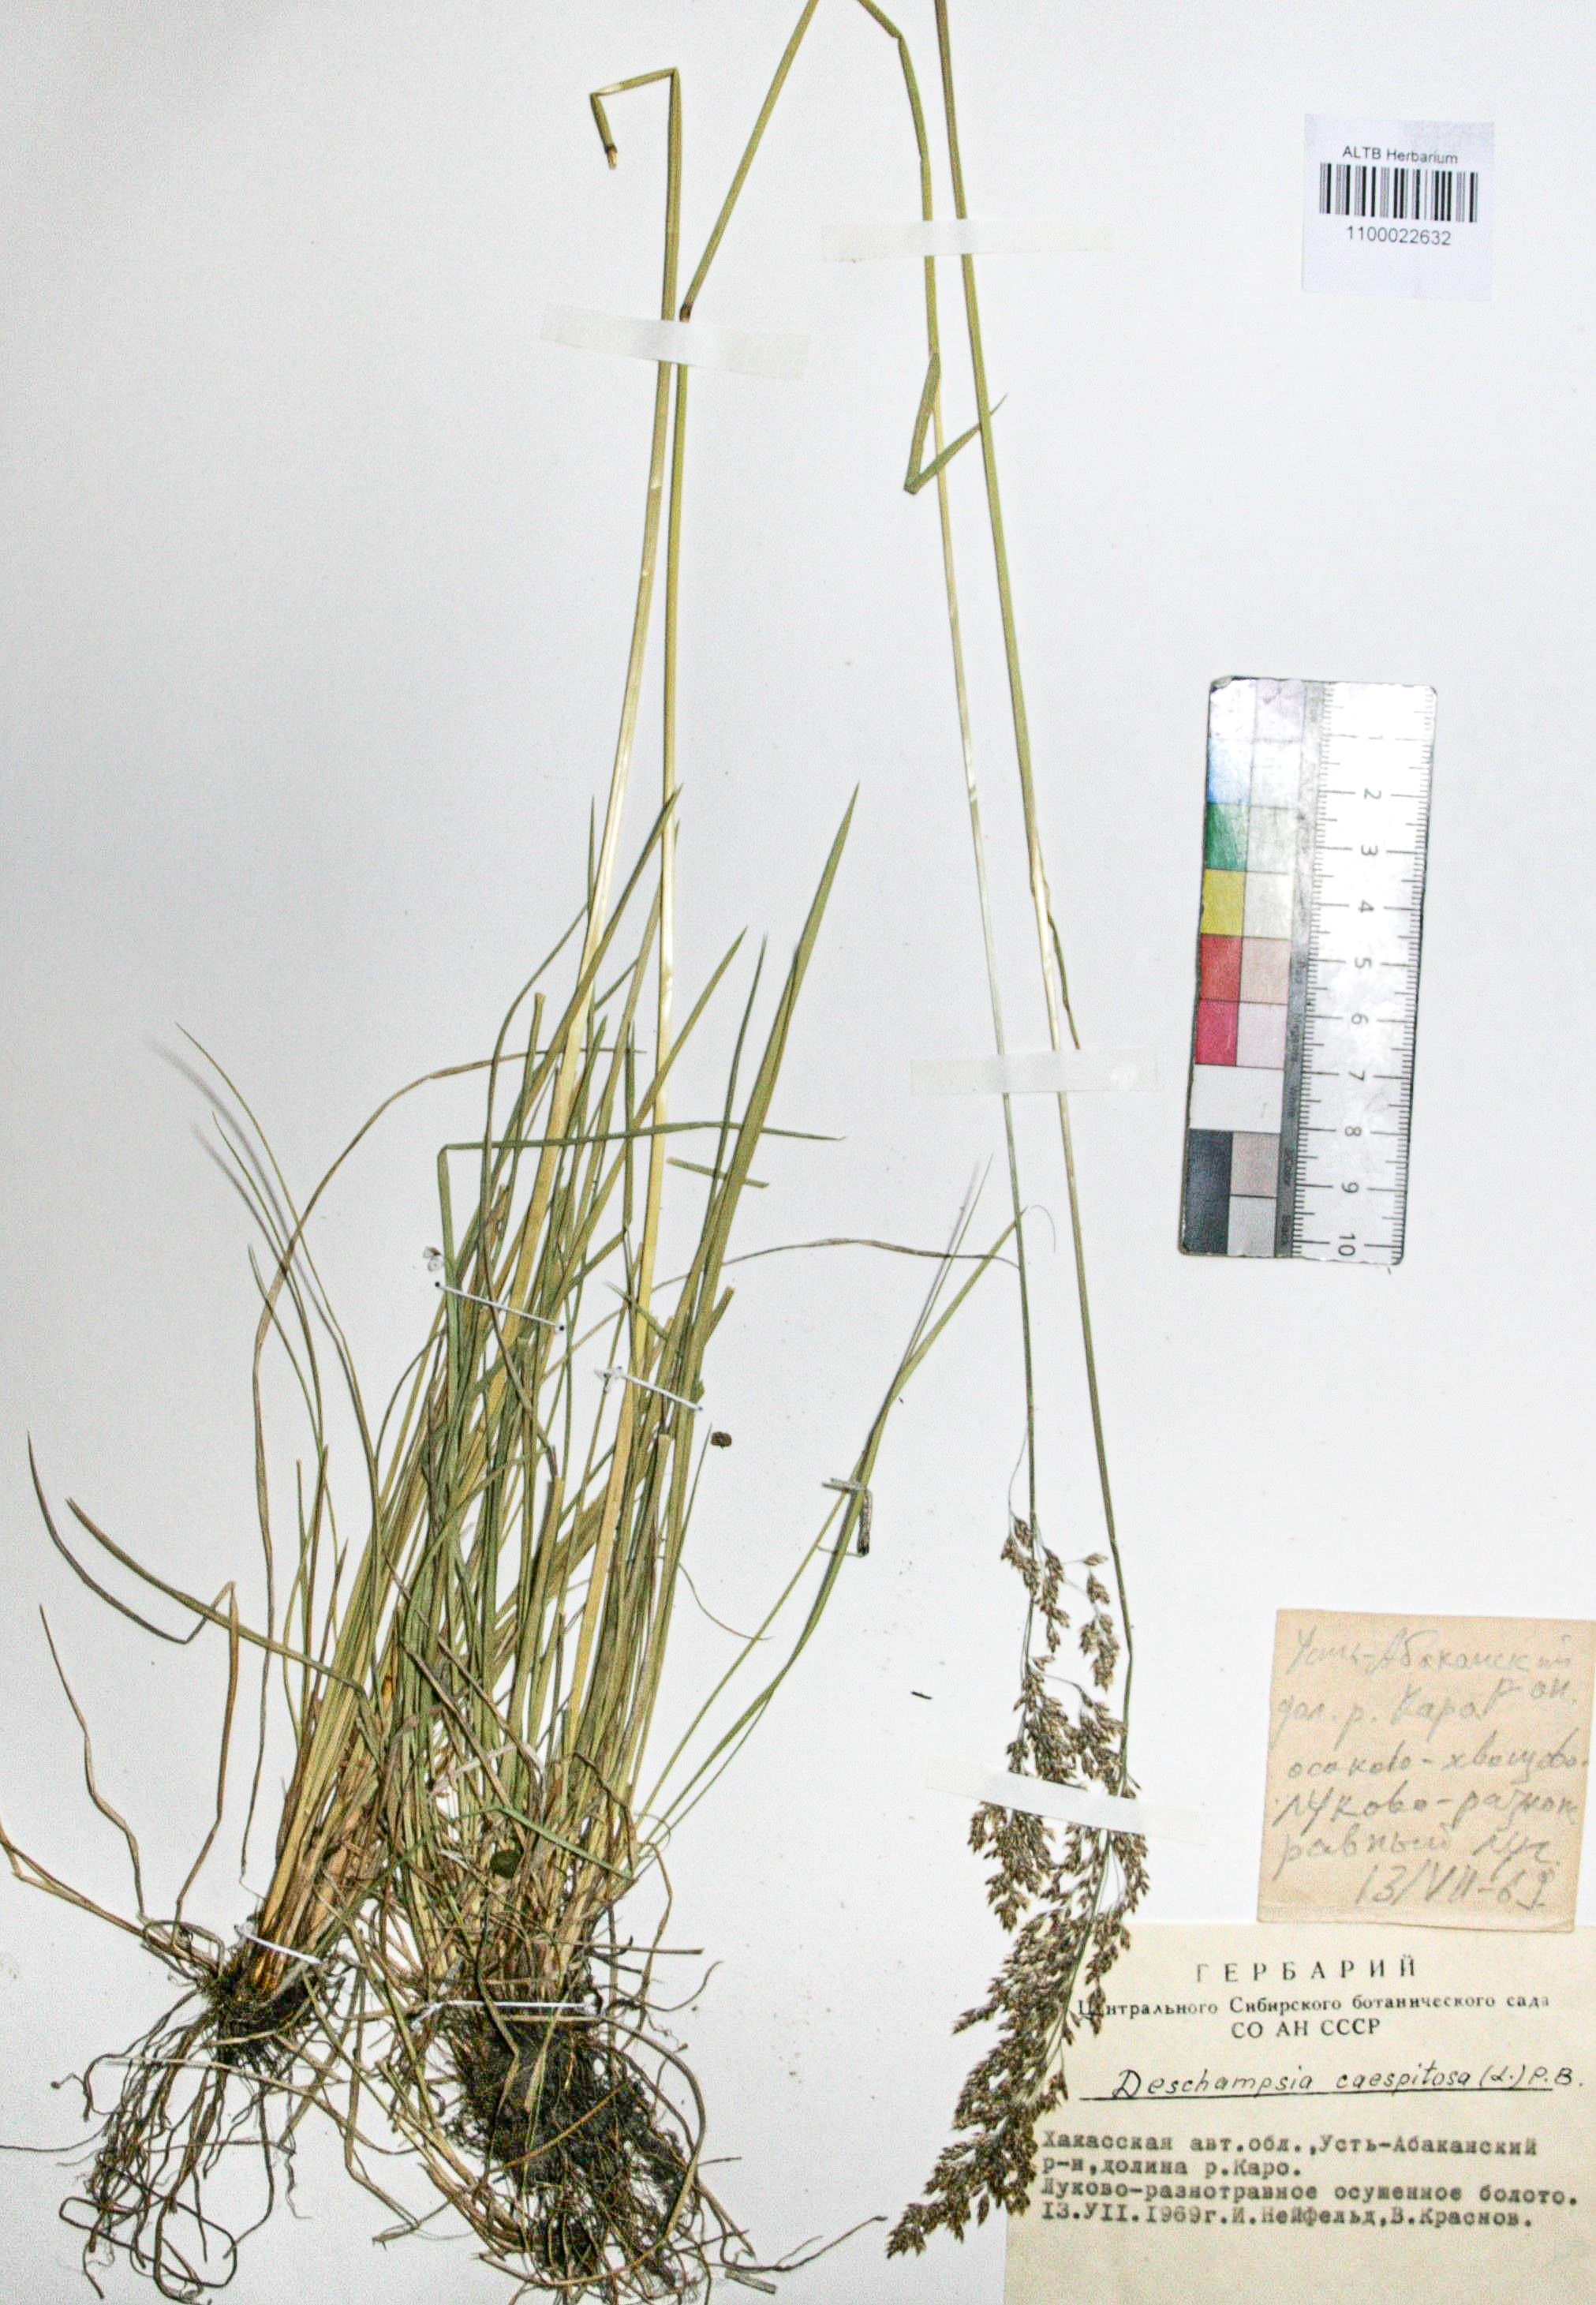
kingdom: Plantae
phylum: Tracheophyta
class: Liliopsida
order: Poales
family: Poaceae
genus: Deschampsia
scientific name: Deschampsia cespitosa
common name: Tufted hair-grass
